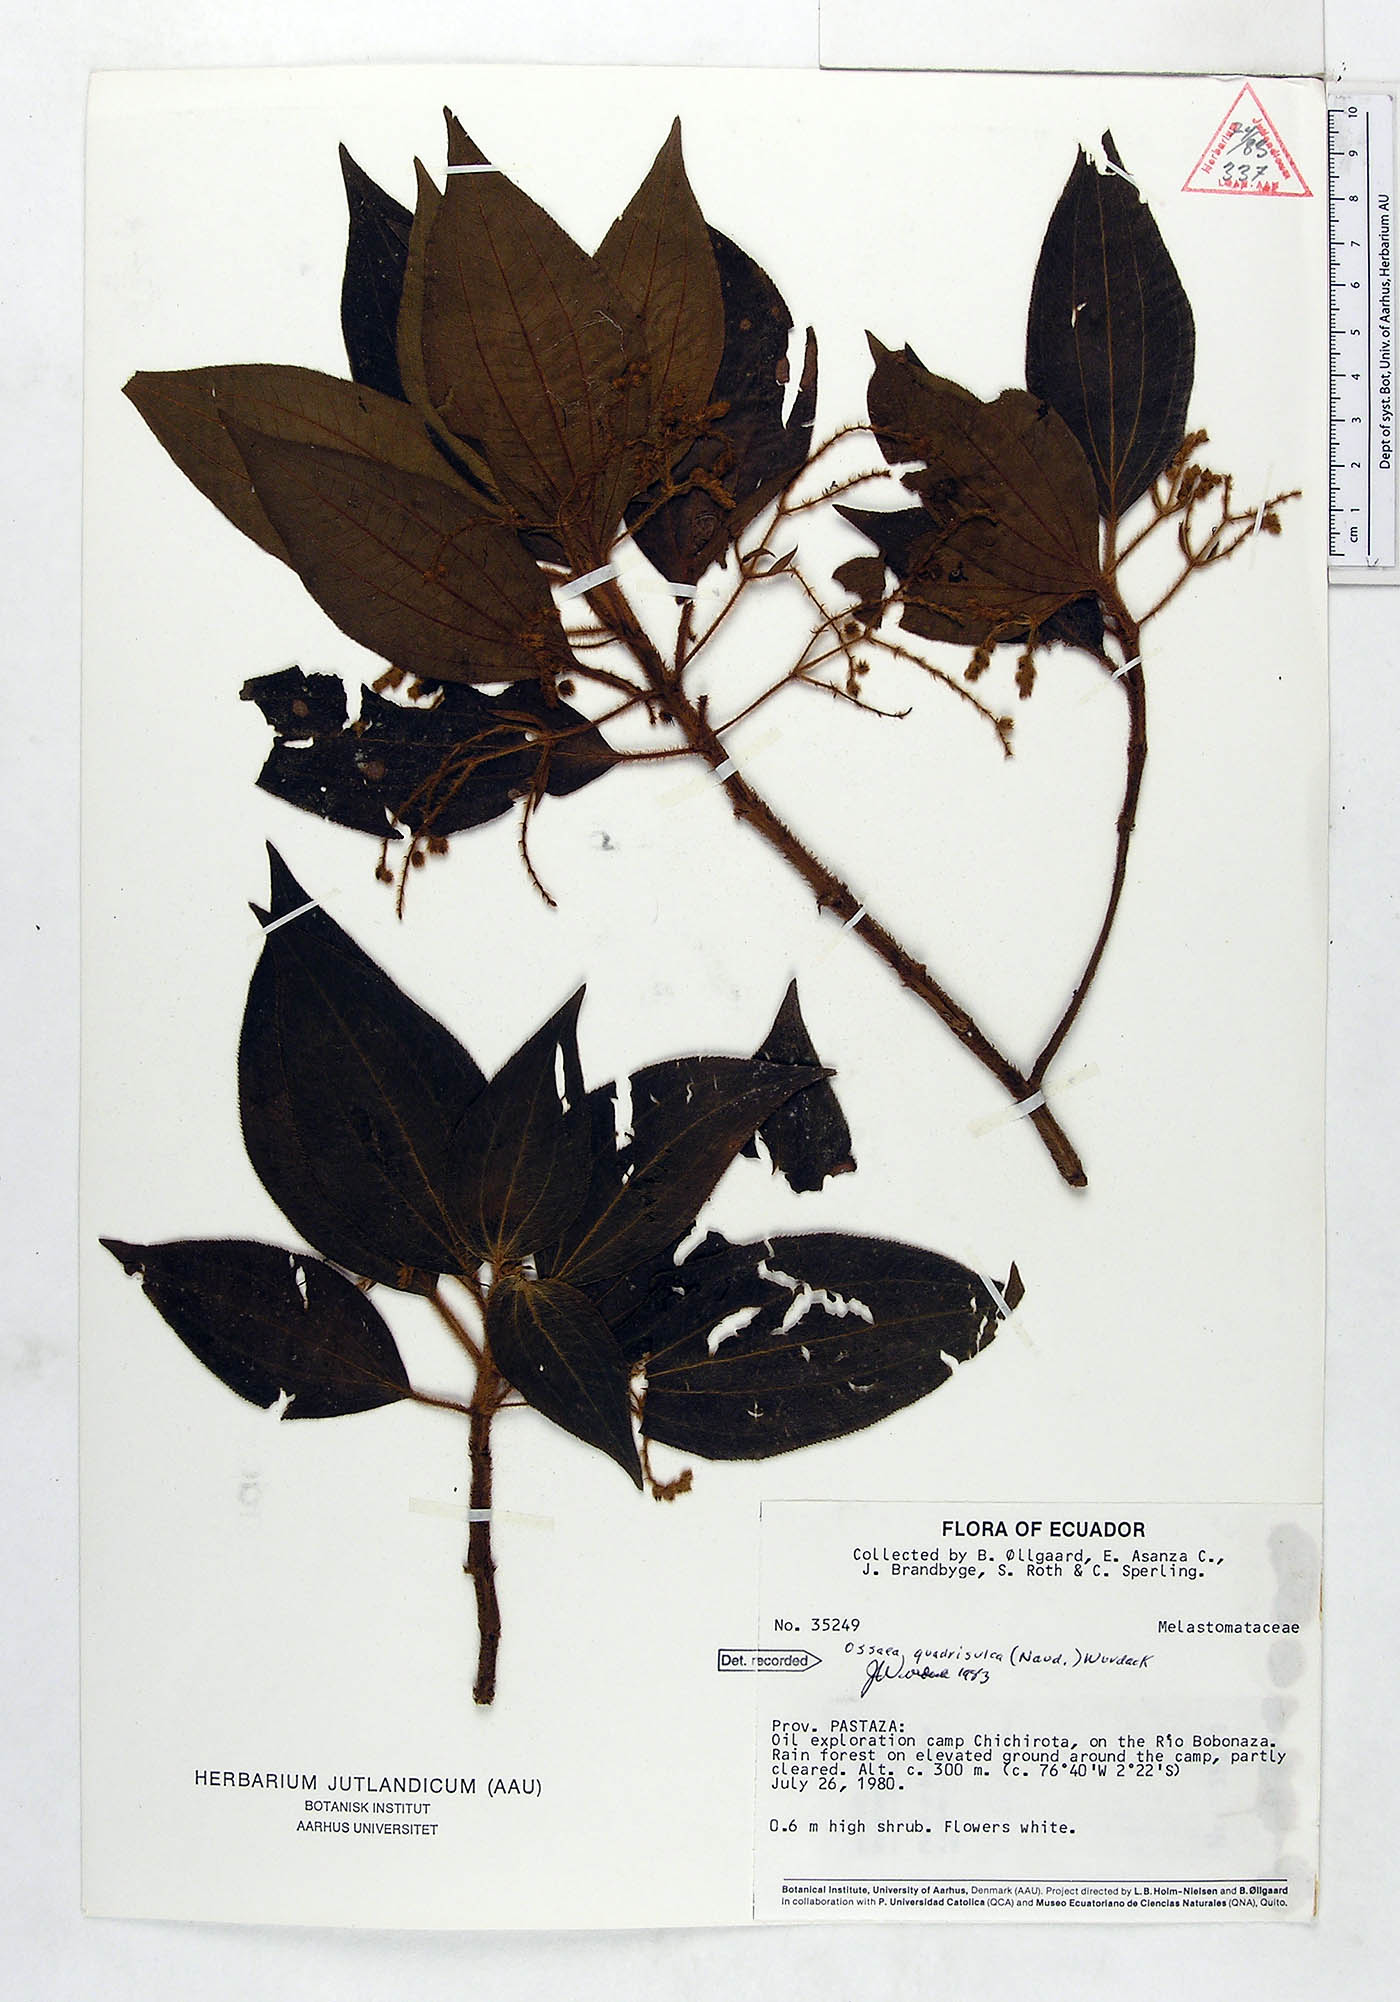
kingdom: Plantae
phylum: Tracheophyta
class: Magnoliopsida
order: Myrtales
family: Melastomataceae
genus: Miconia
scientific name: Miconia quadrisulca
